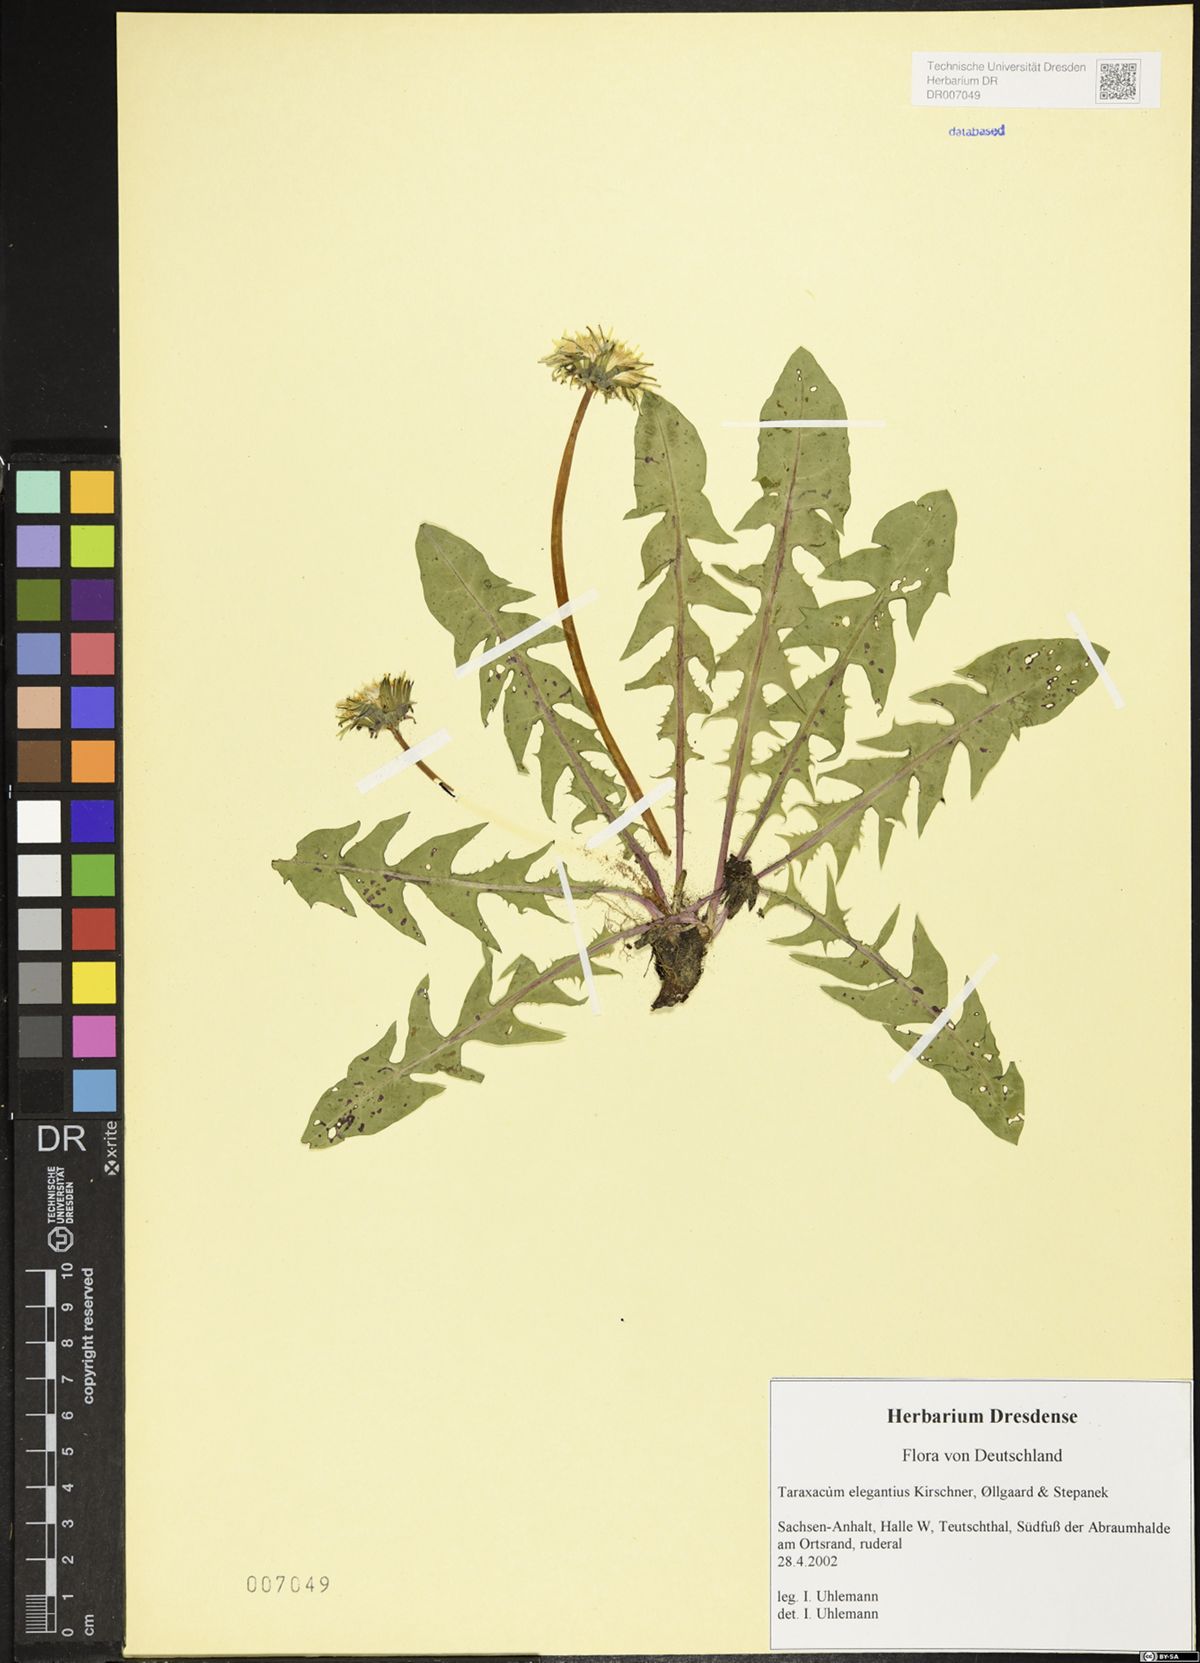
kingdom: Plantae
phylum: Tracheophyta
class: Magnoliopsida
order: Asterales
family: Asteraceae
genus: Taraxacum
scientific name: Taraxacum elegantius
